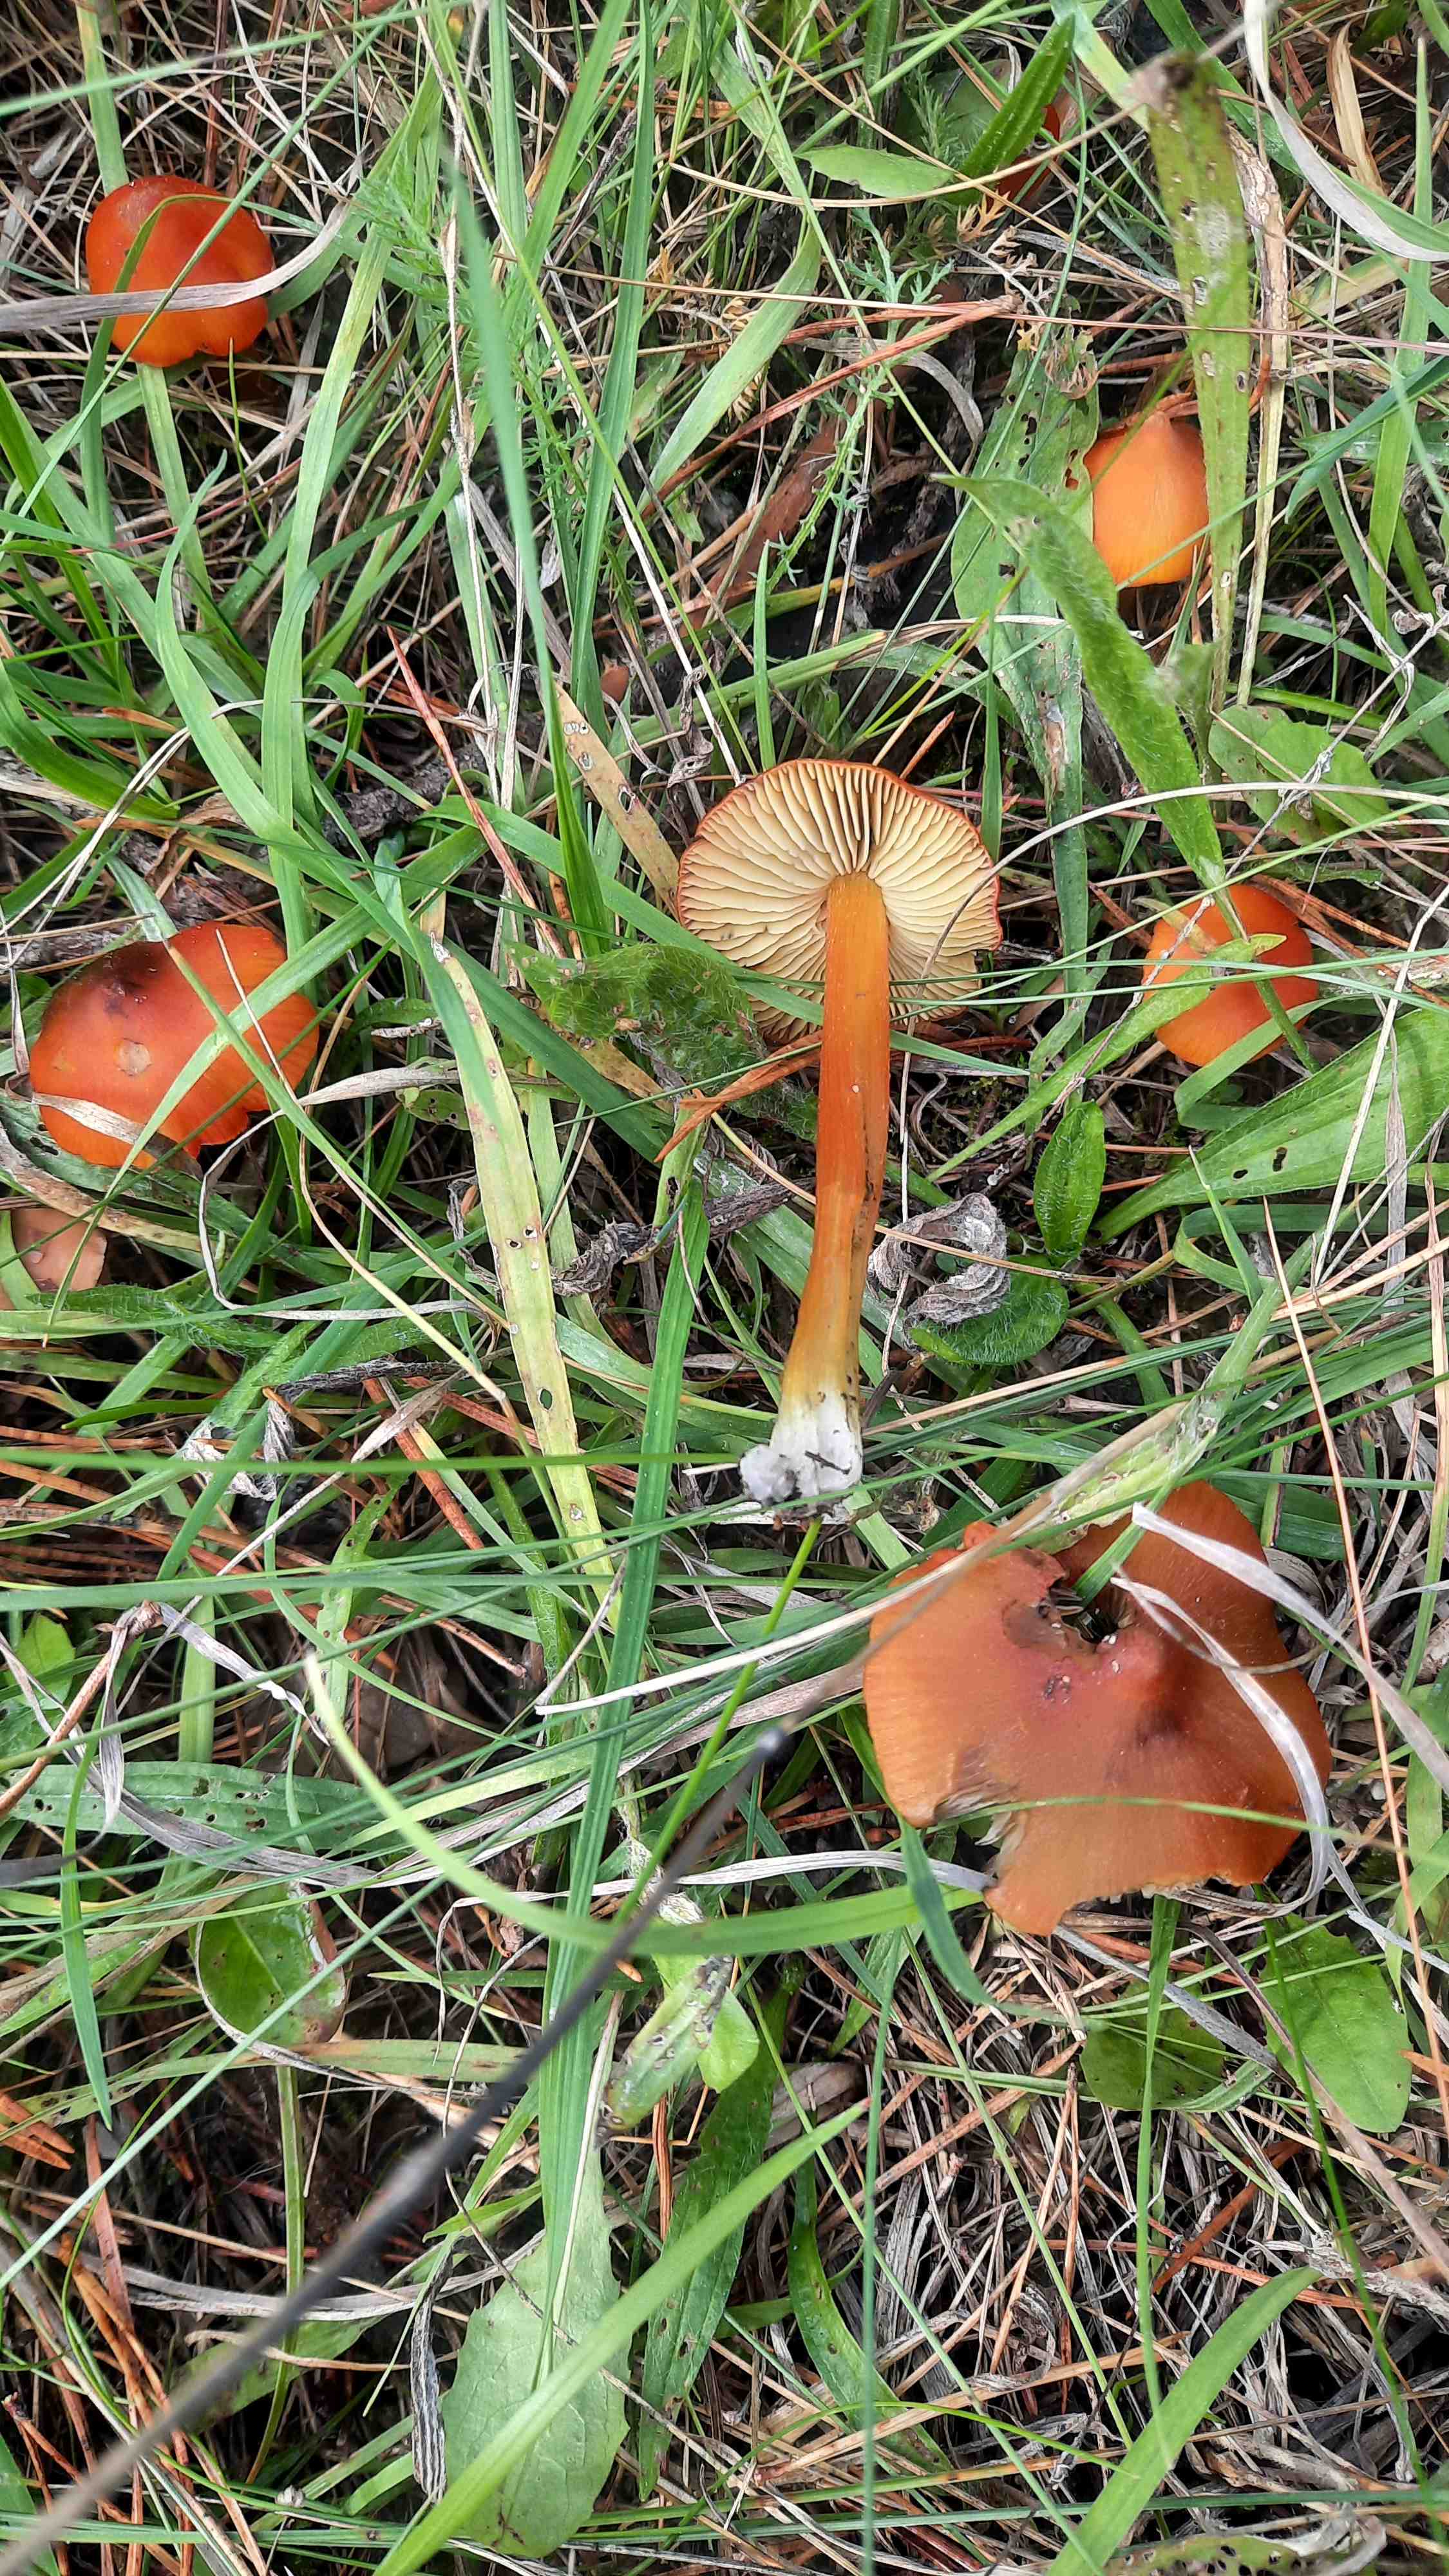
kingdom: Fungi
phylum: Basidiomycota
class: Agaricomycetes
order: Agaricales
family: Hygrophoraceae
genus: Hygrocybe
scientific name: Hygrocybe conica
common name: kegle-vokshat
